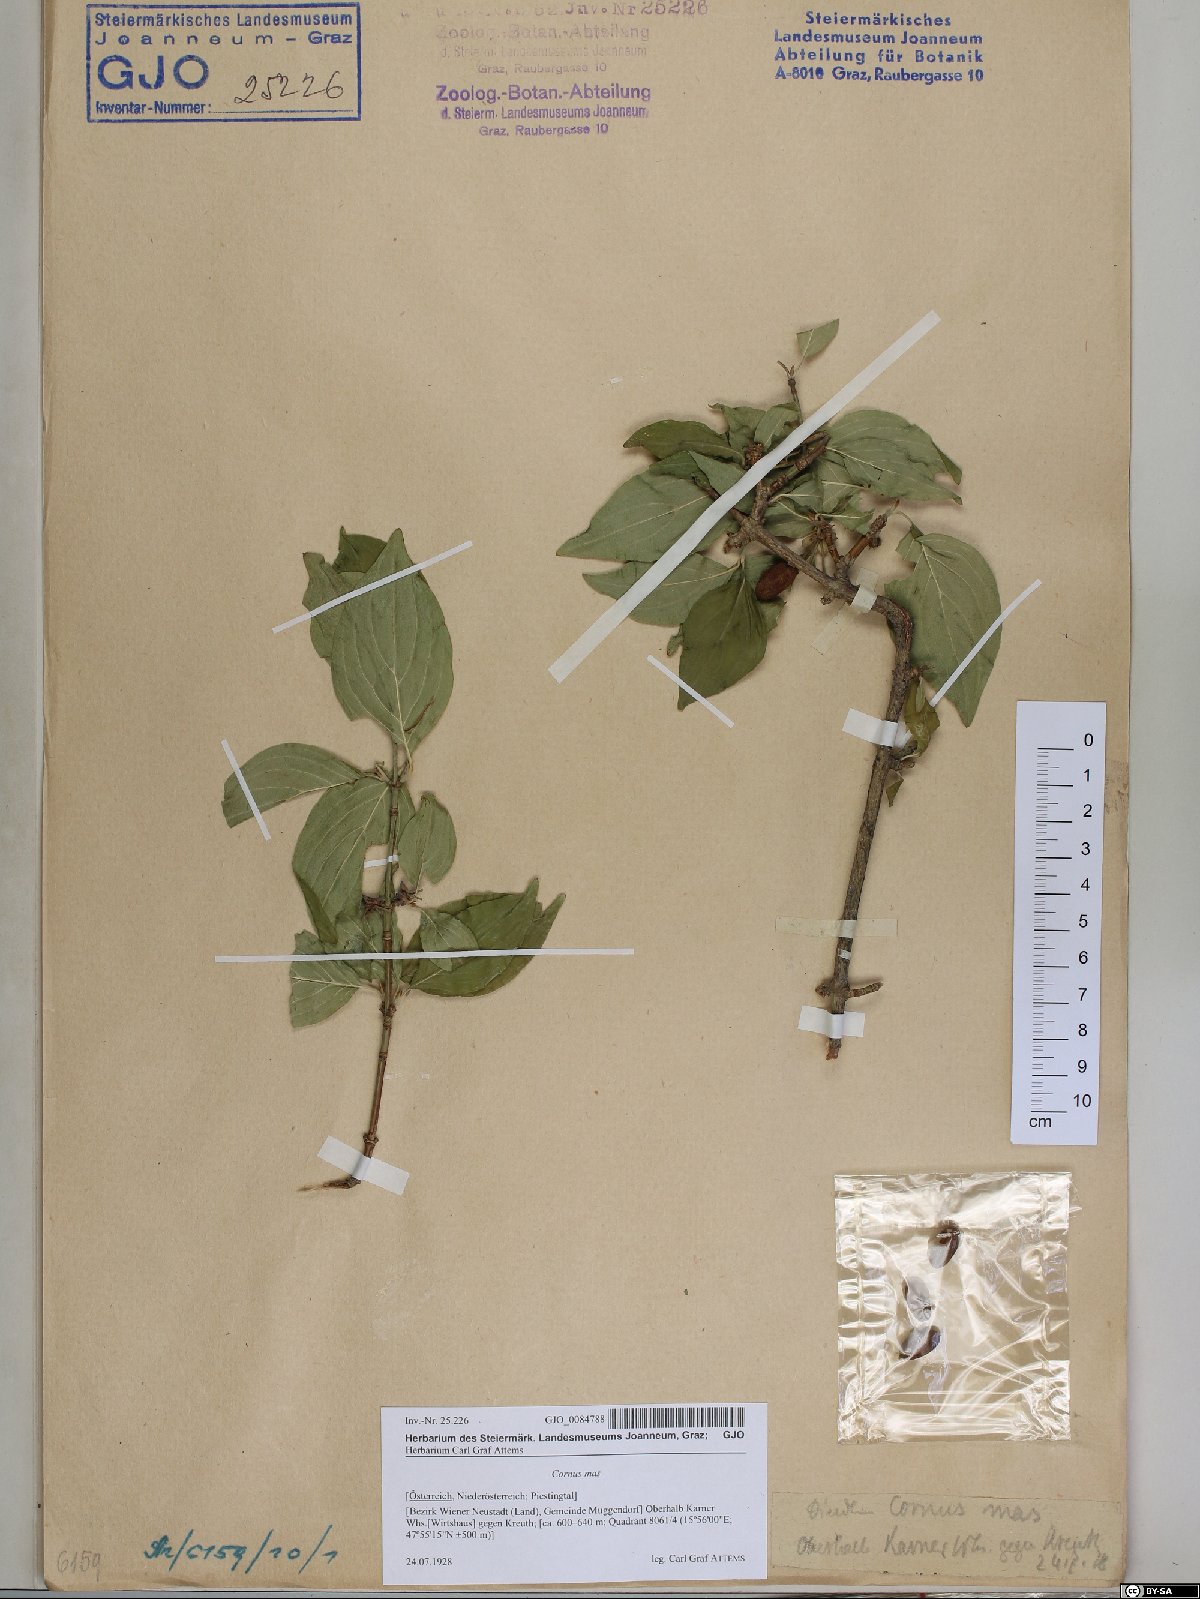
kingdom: Plantae
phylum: Tracheophyta
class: Magnoliopsida
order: Cornales
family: Cornaceae
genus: Cornus
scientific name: Cornus mas
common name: Cornelian-cherry
